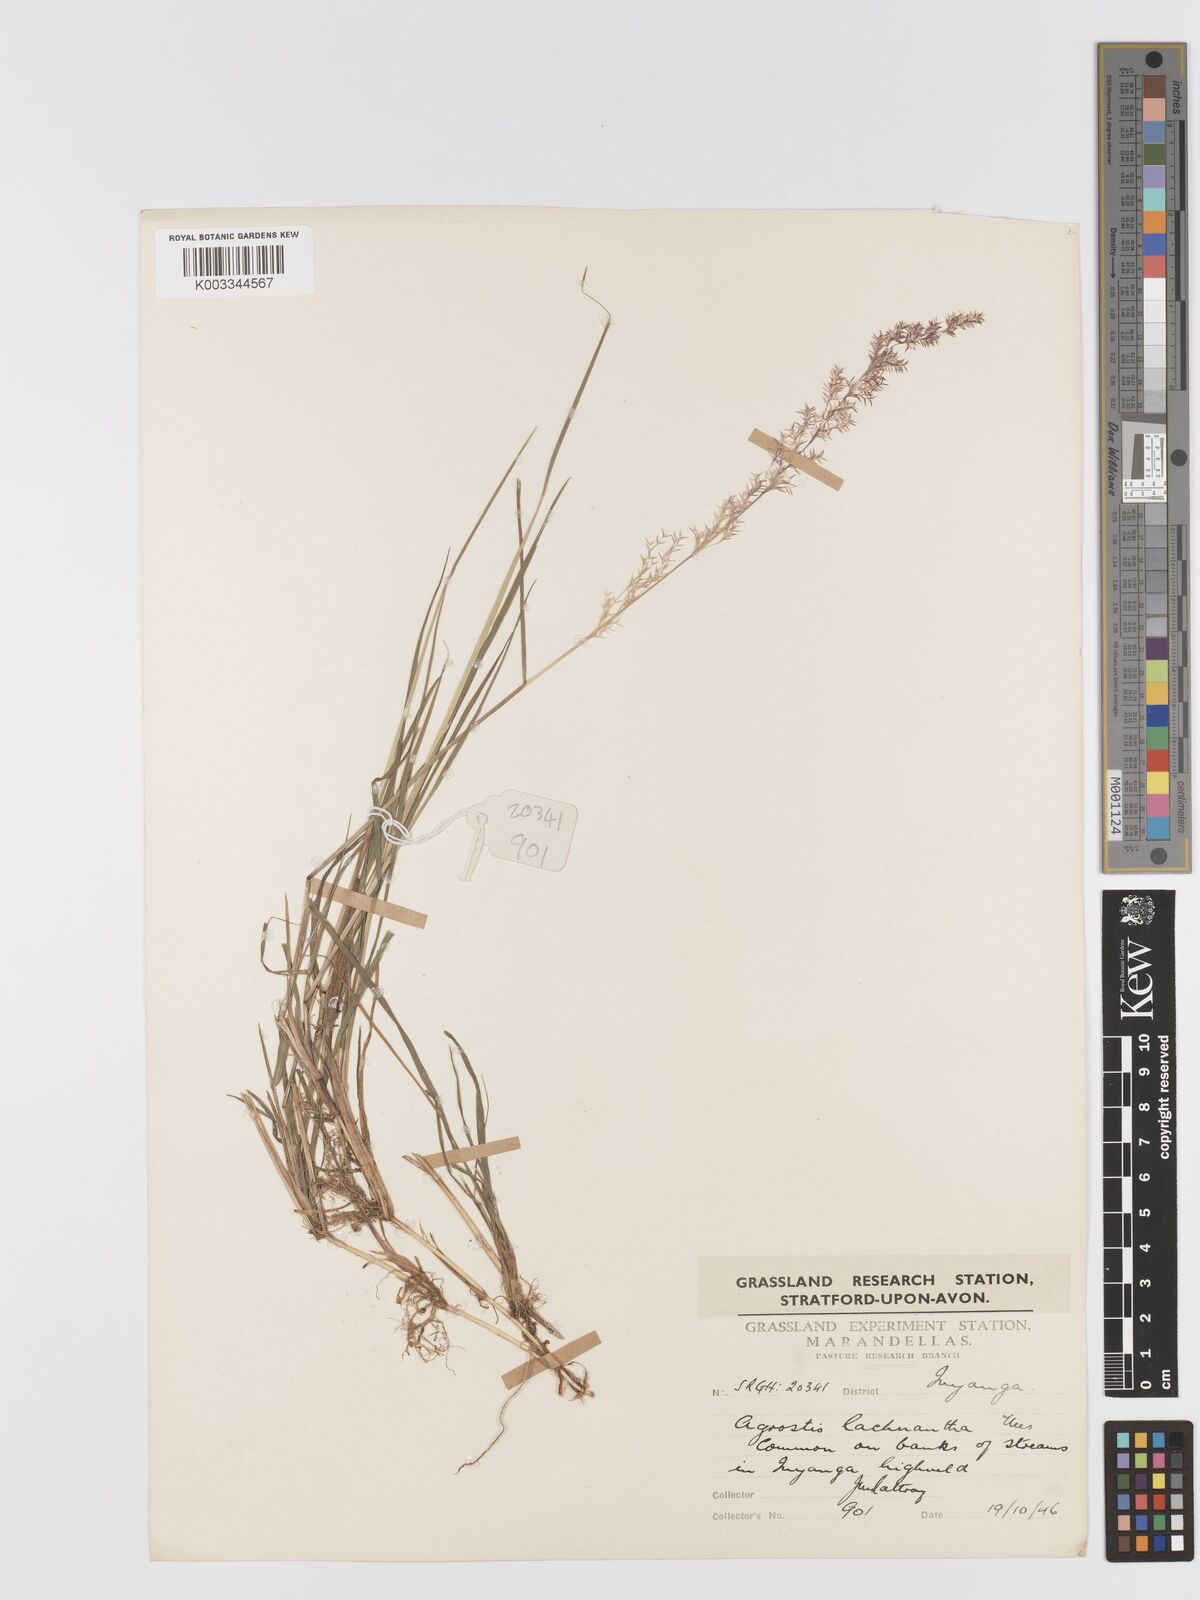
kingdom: Plantae
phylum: Tracheophyta
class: Liliopsida
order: Poales
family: Poaceae
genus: Lachnagrostis
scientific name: Lachnagrostis lachnantha
